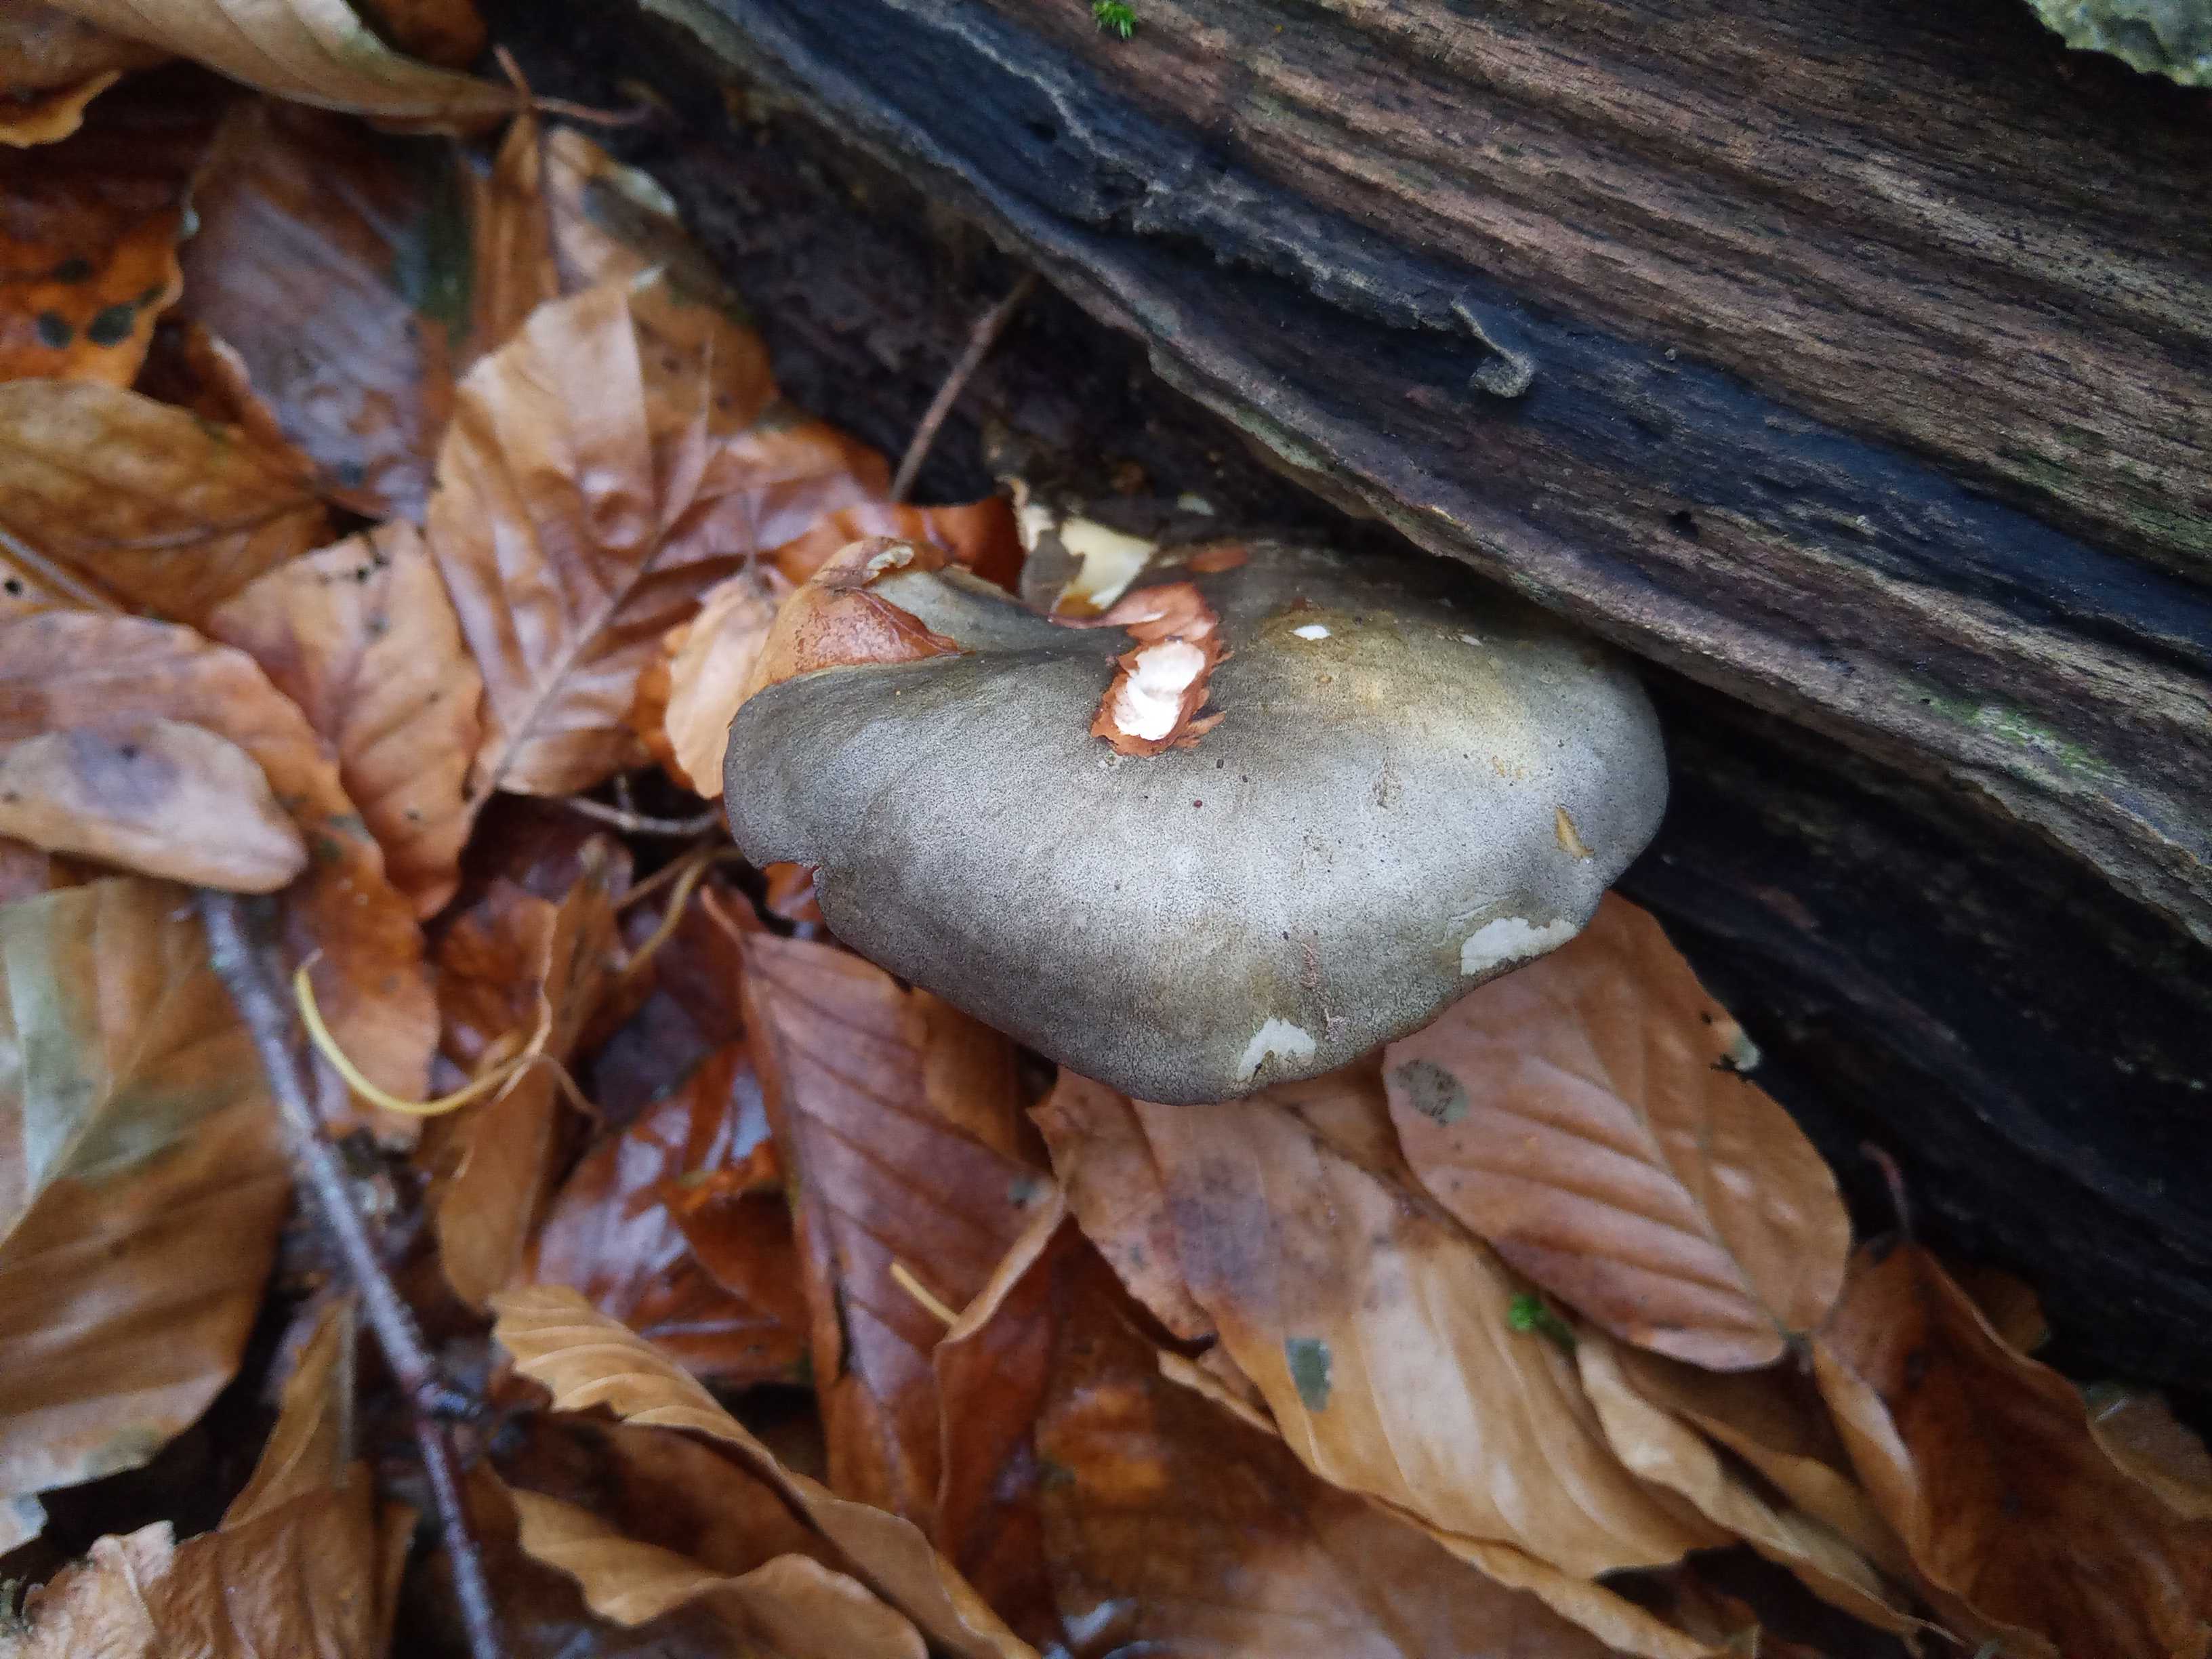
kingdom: Fungi
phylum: Basidiomycota
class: Agaricomycetes
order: Agaricales
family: Sarcomyxaceae
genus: Sarcomyxa
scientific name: Sarcomyxa serotina
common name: gummihat
